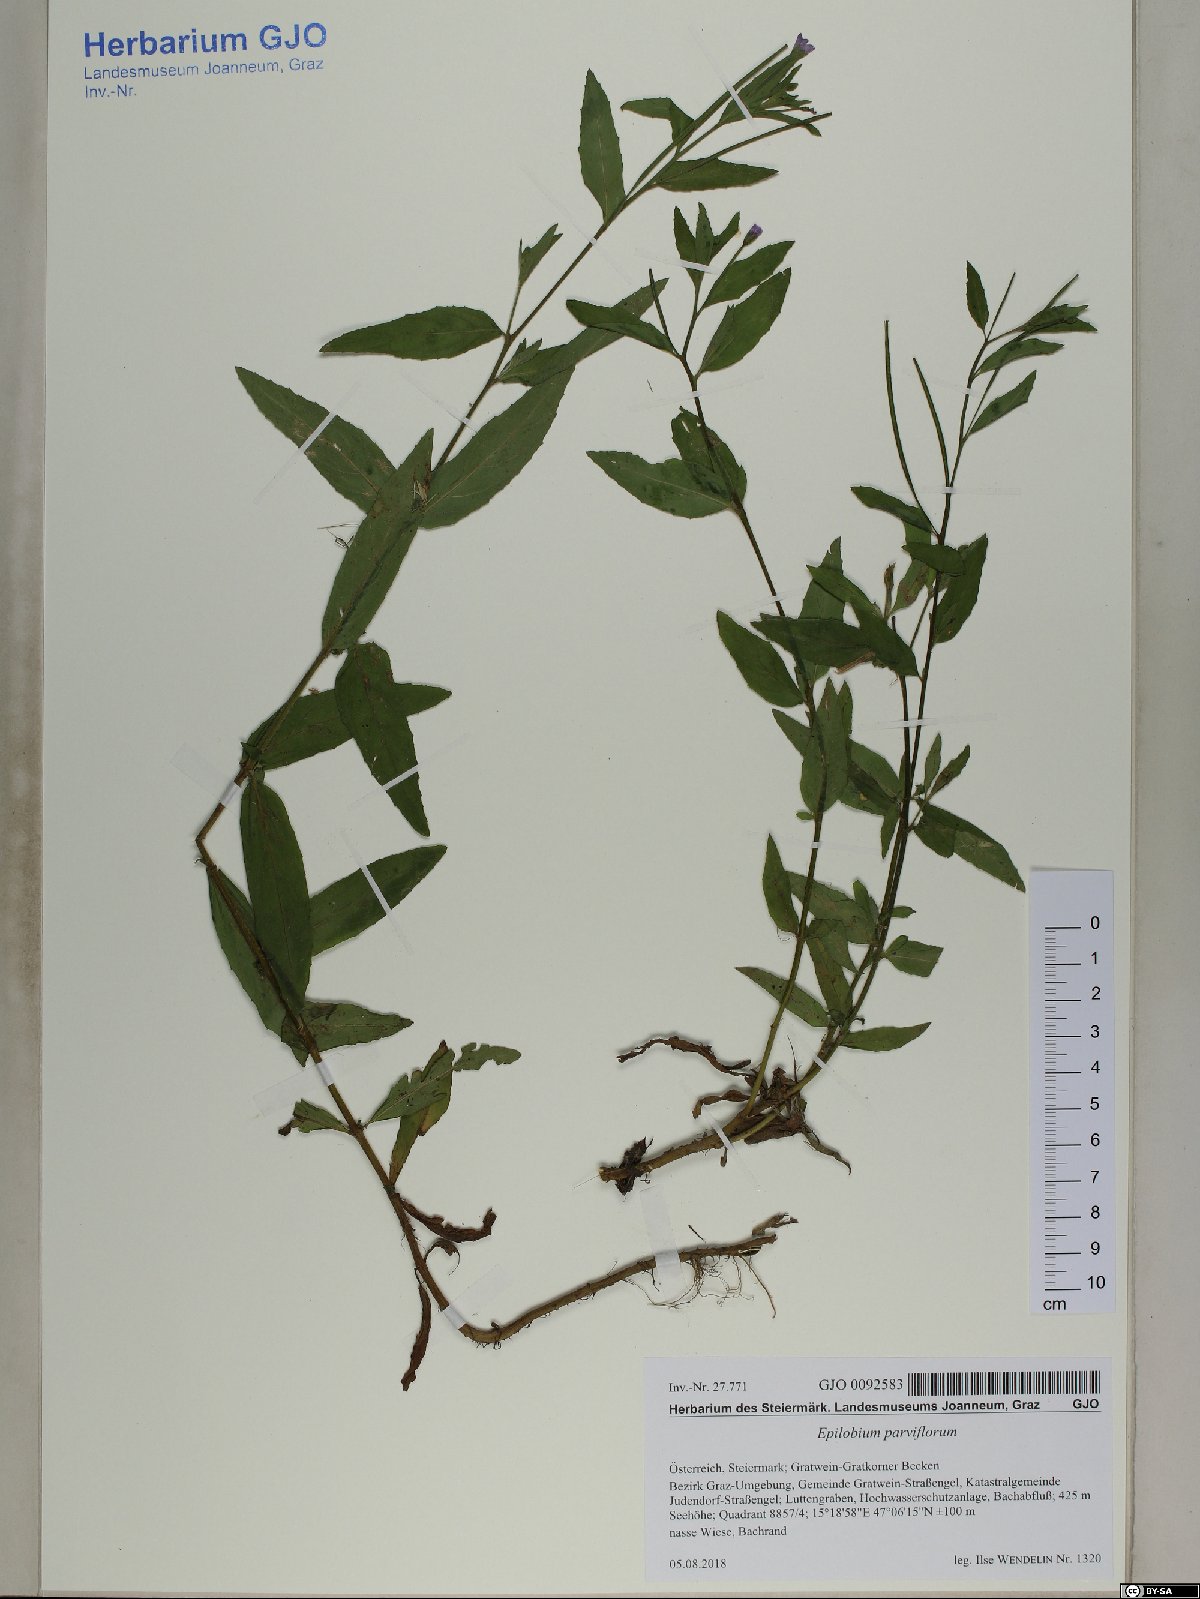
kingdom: Plantae
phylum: Tracheophyta
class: Magnoliopsida
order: Myrtales
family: Onagraceae
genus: Epilobium
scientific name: Epilobium parviflorum
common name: Hoary willowherb
